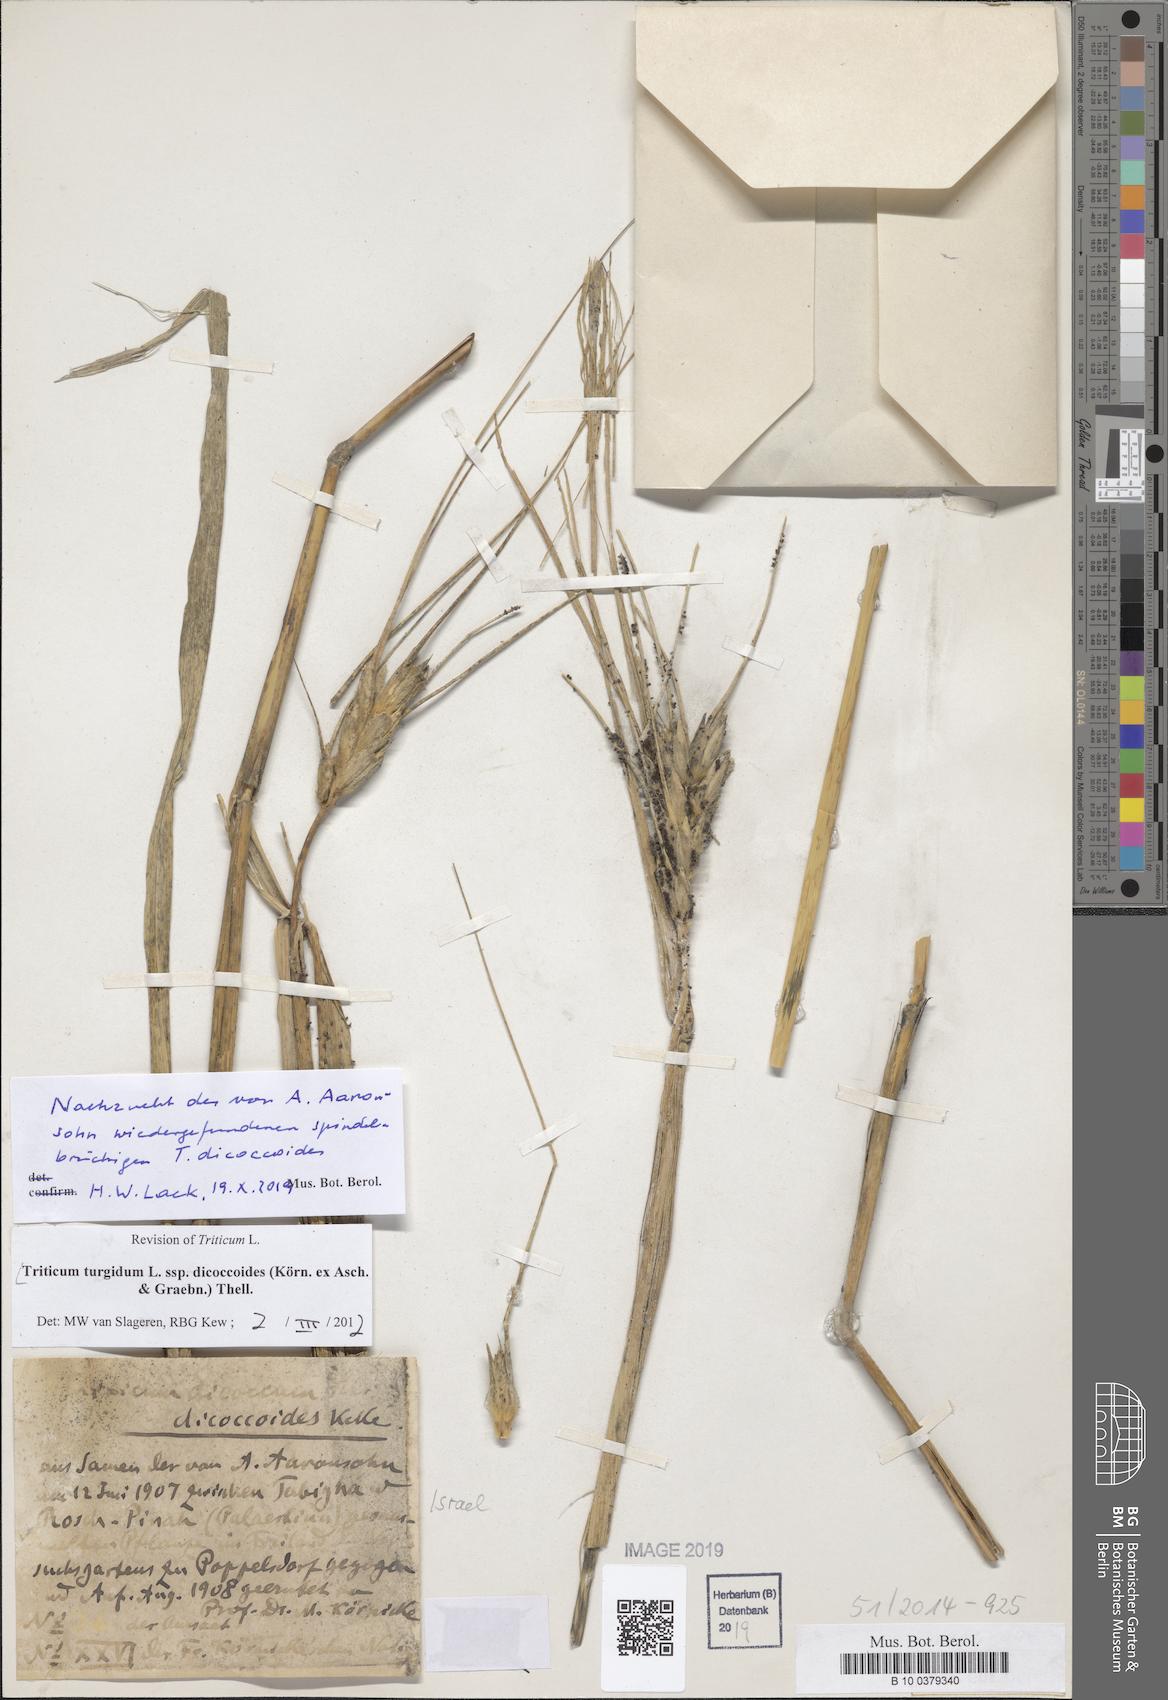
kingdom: Plantae
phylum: Tracheophyta
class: Liliopsida
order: Poales
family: Poaceae
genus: Triticum
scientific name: Triticum turgidum
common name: Rivet wheat
